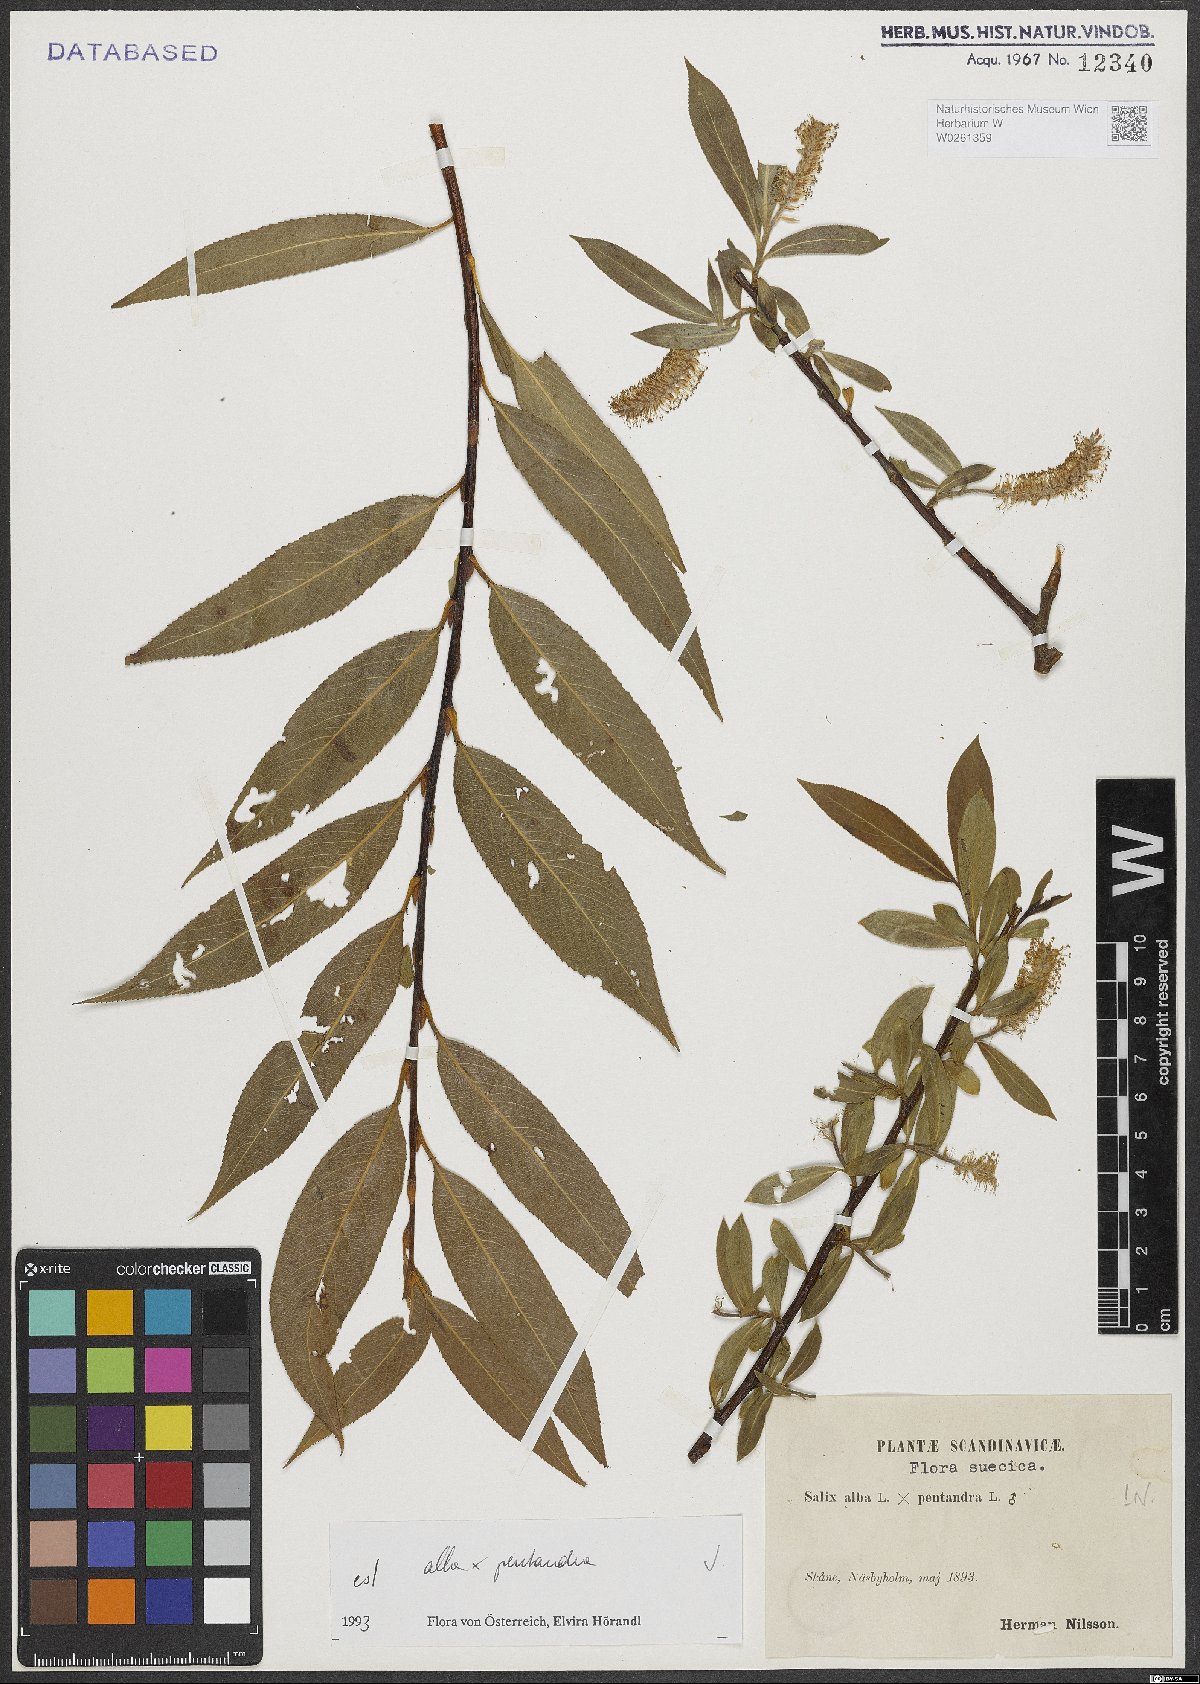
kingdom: Plantae
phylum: Tracheophyta
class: Magnoliopsida
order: Malpighiales
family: Salicaceae
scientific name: Salicaceae
